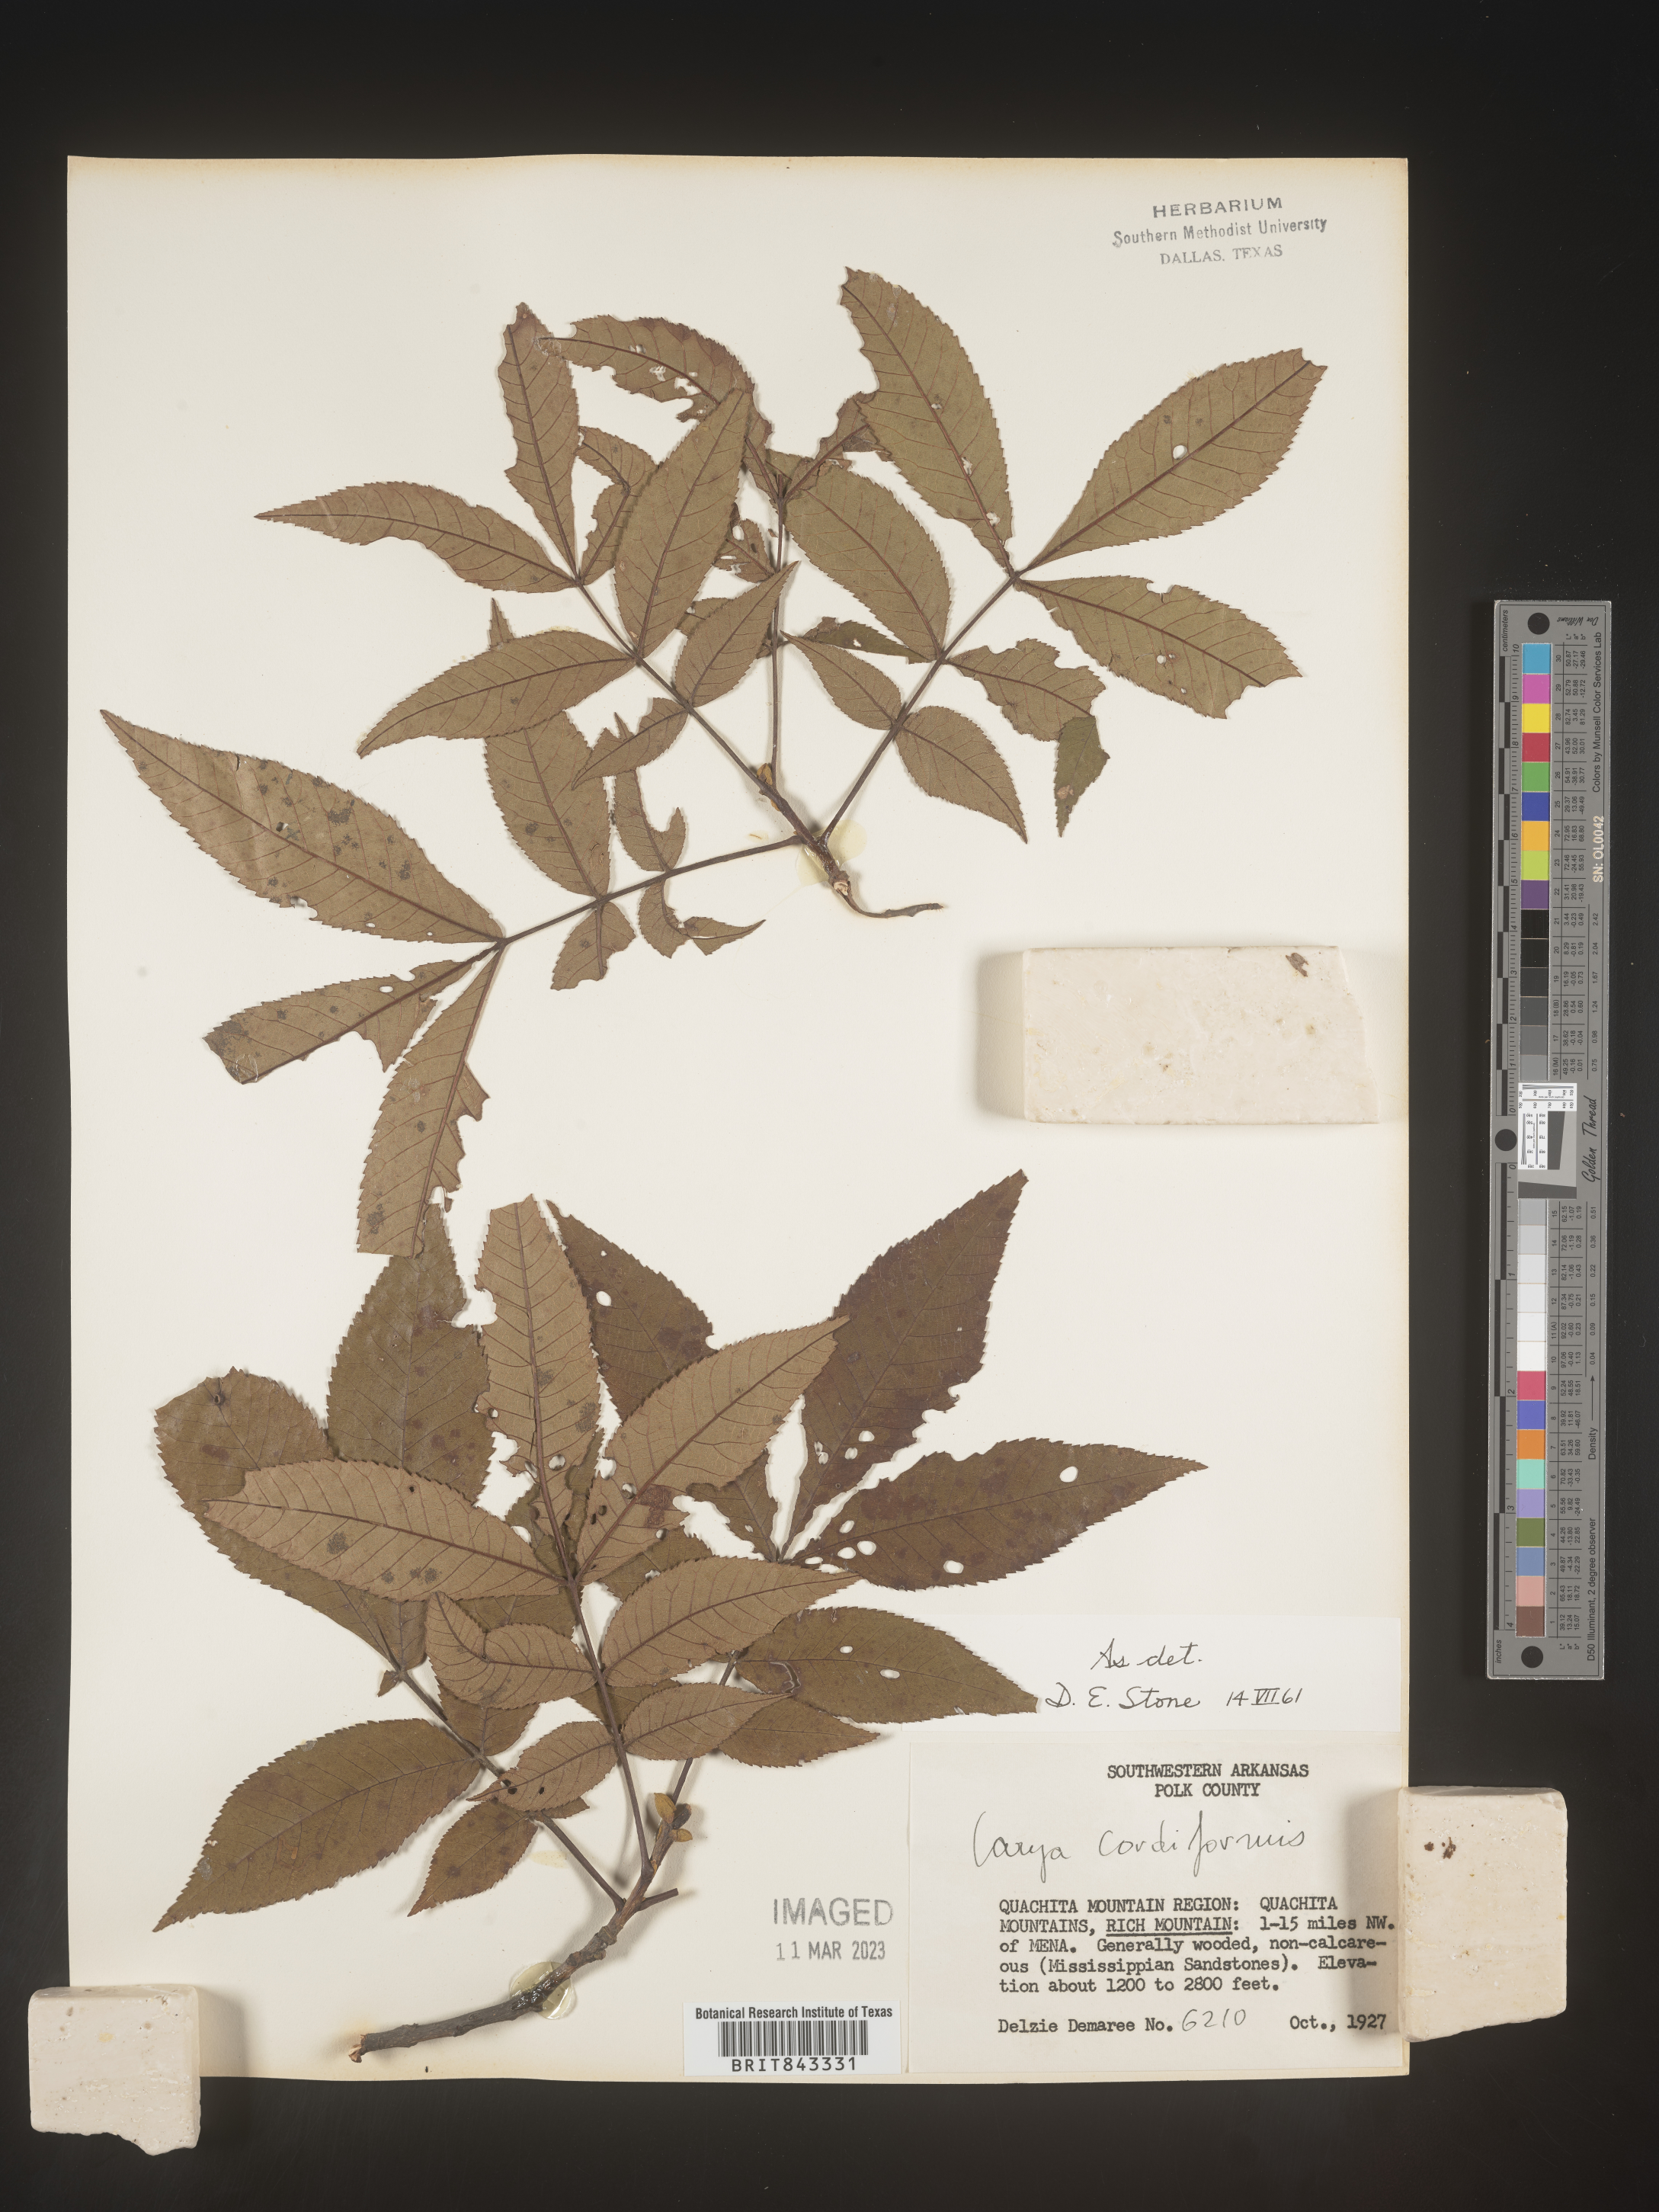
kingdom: Plantae
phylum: Tracheophyta
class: Magnoliopsida
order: Fagales
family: Juglandaceae
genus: Carya
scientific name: Carya cordiformis
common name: Bitternut hickory
